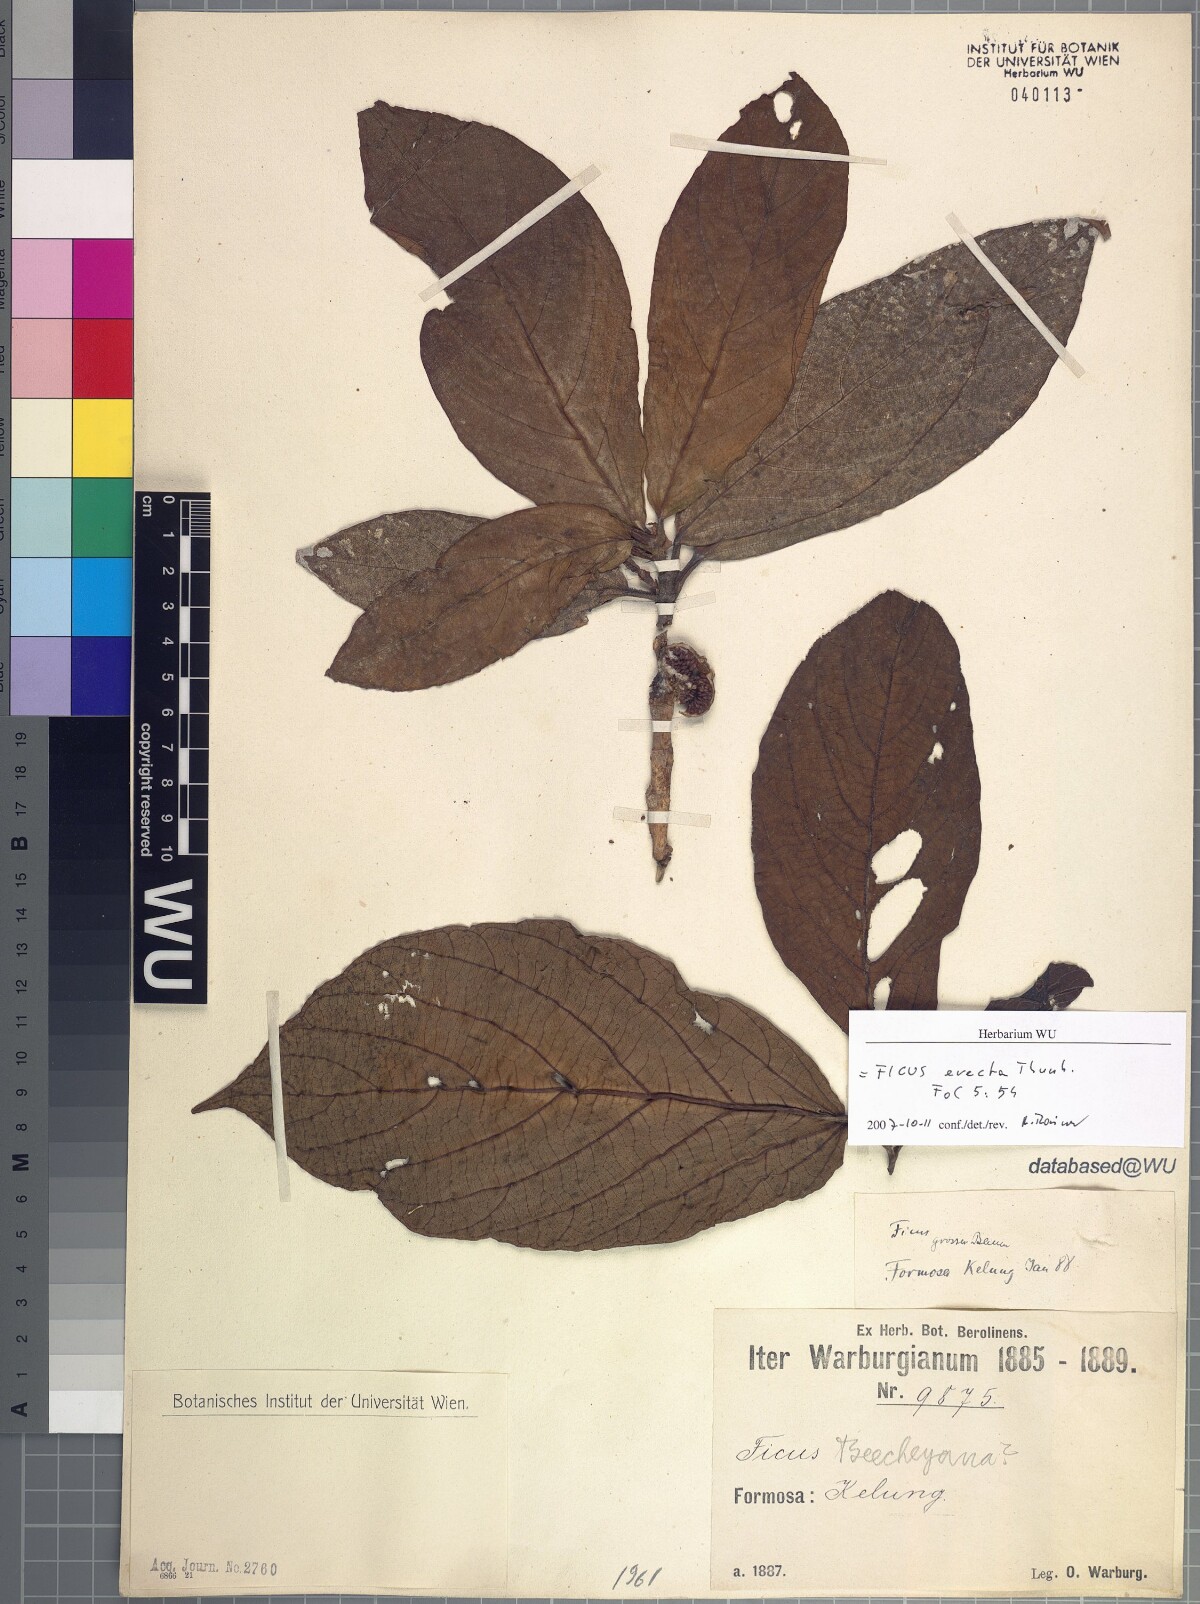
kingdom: Plantae
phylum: Tracheophyta
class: Magnoliopsida
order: Rosales
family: Moraceae
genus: Ficus
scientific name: Ficus erecta
